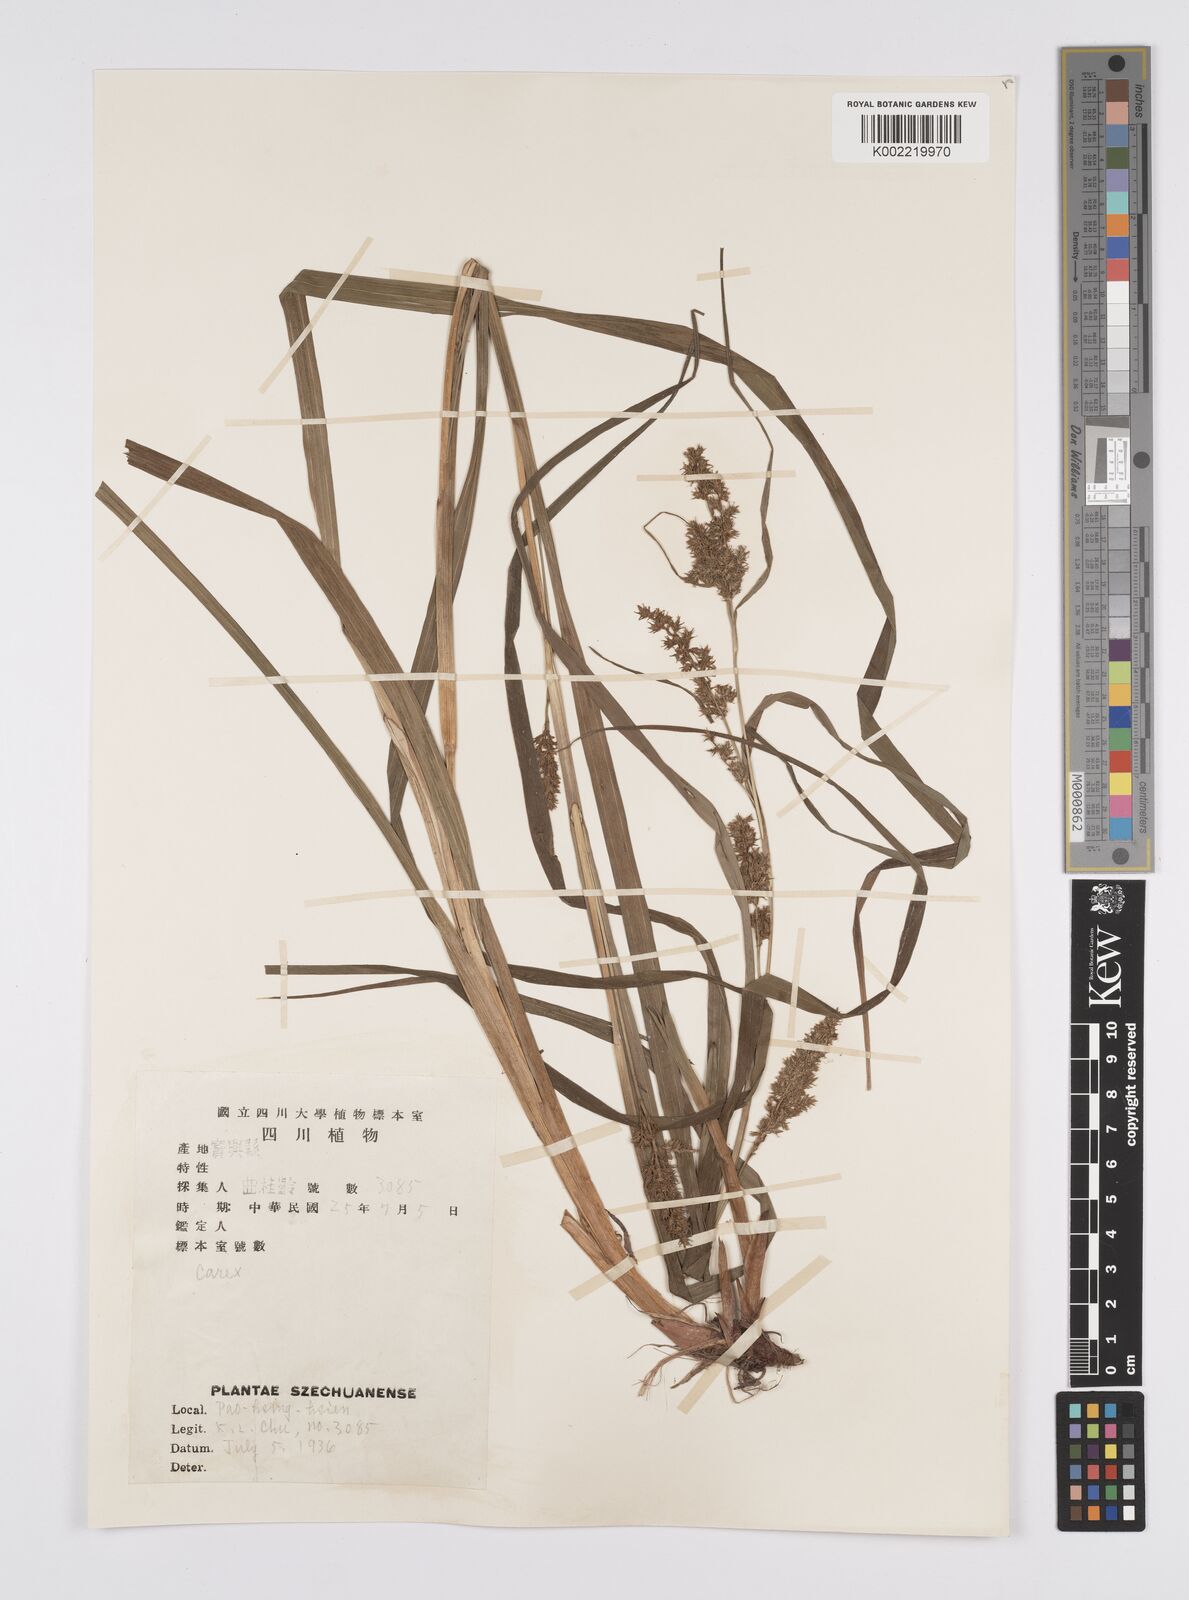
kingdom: Plantae
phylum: Tracheophyta
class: Liliopsida
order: Poales
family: Cyperaceae
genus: Carex
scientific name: Carex filicina
